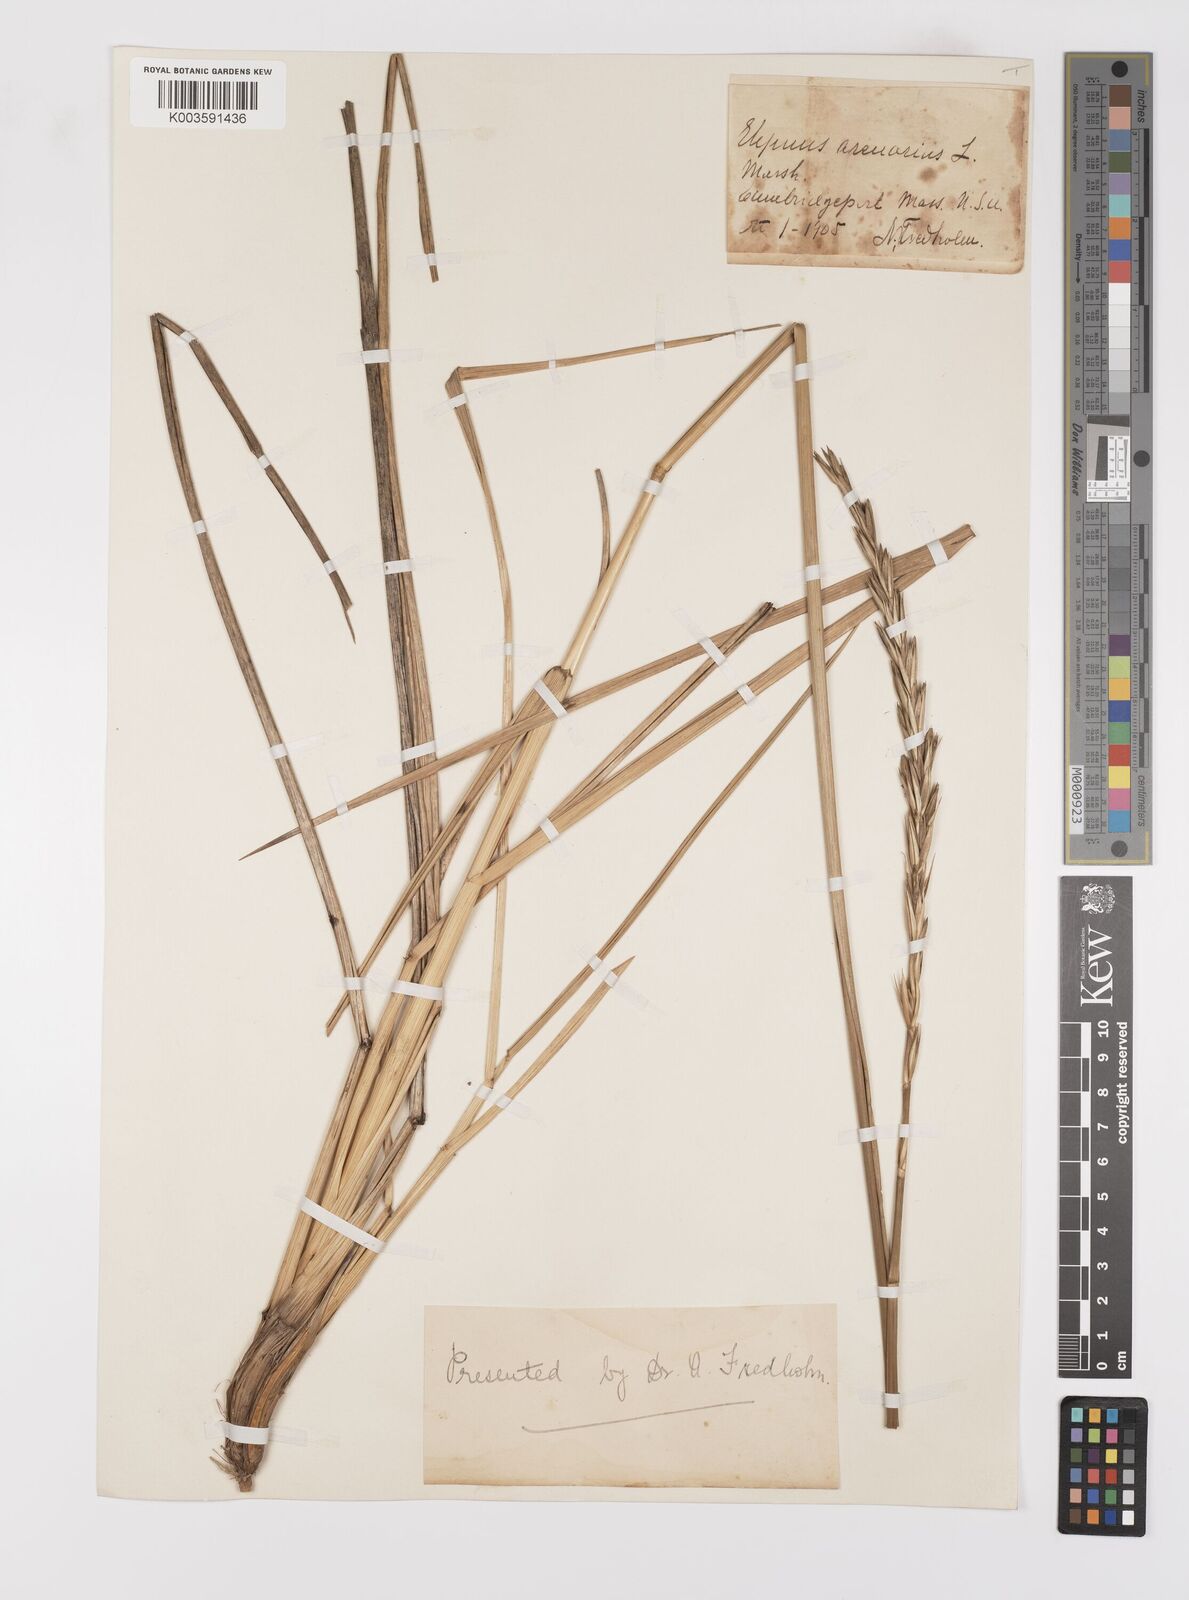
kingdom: Plantae
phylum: Tracheophyta
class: Liliopsida
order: Poales
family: Poaceae
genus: Leymus
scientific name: Leymus mollis
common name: American dune grass
